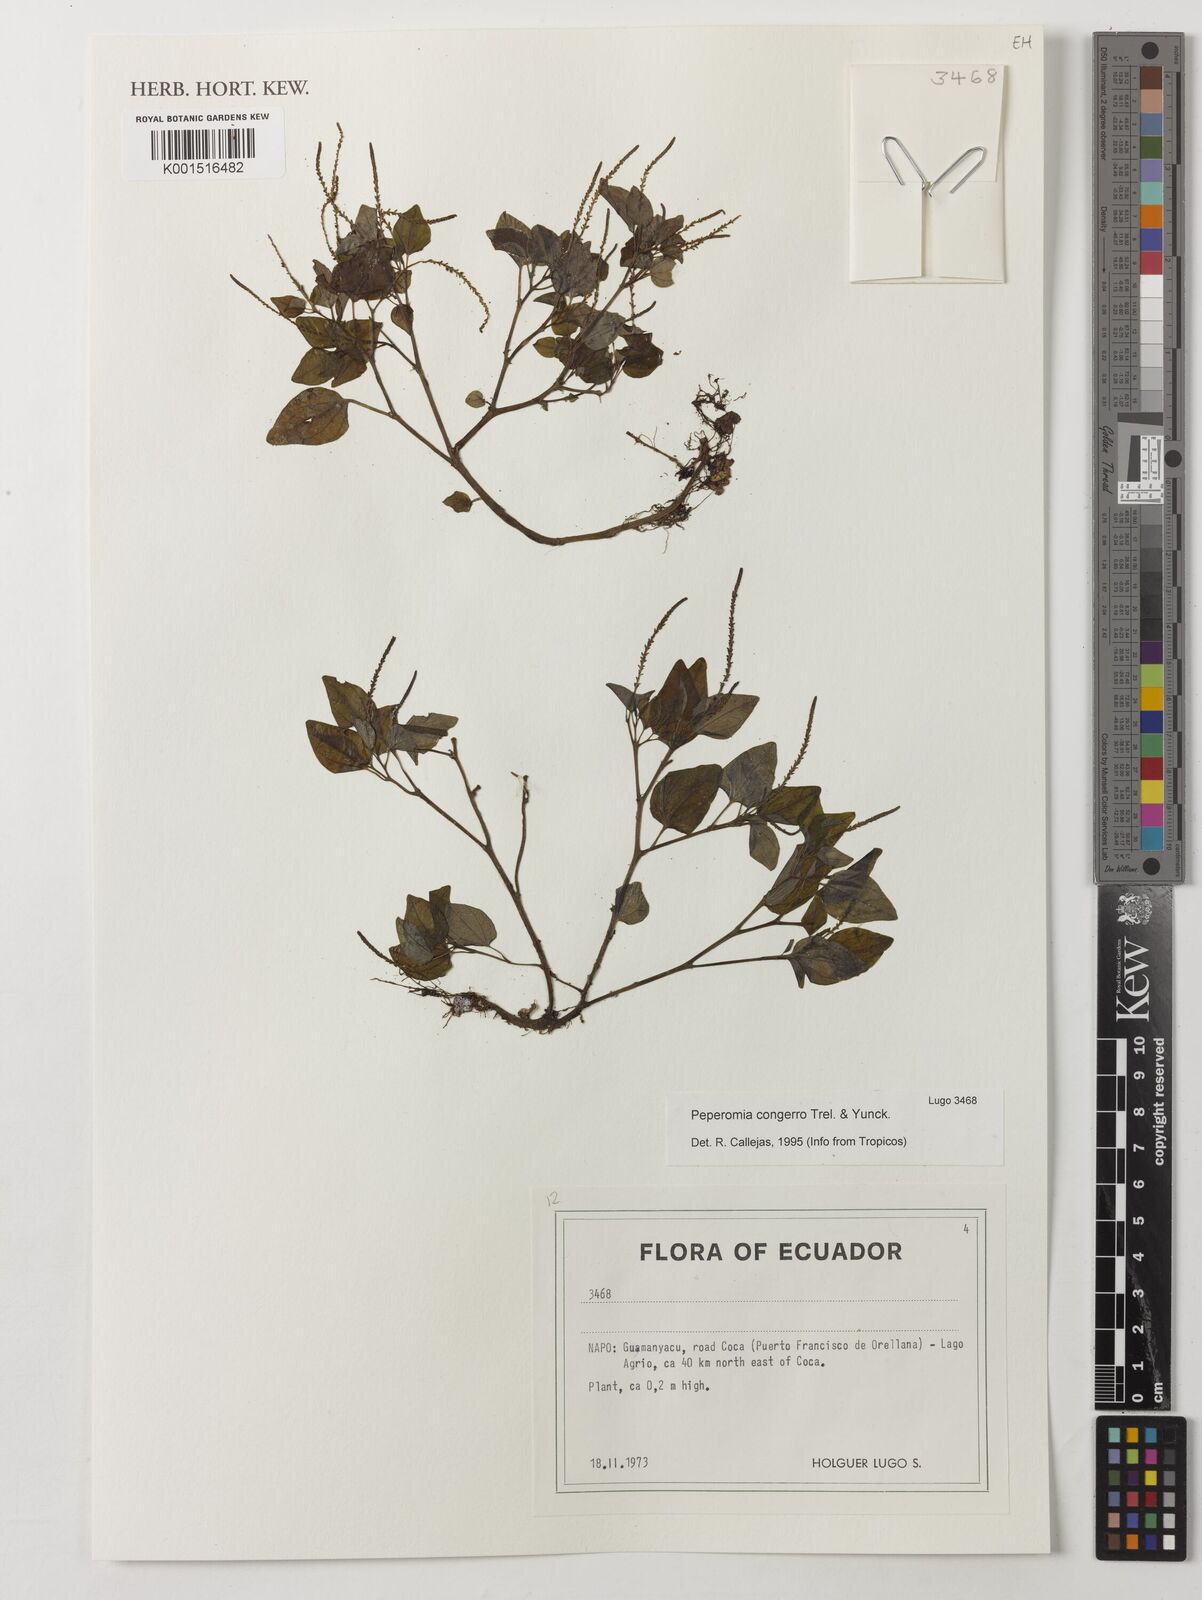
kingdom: Plantae
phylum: Tracheophyta
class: Magnoliopsida
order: Piperales
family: Piperaceae
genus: Peperomia
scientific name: Peperomia congerro
